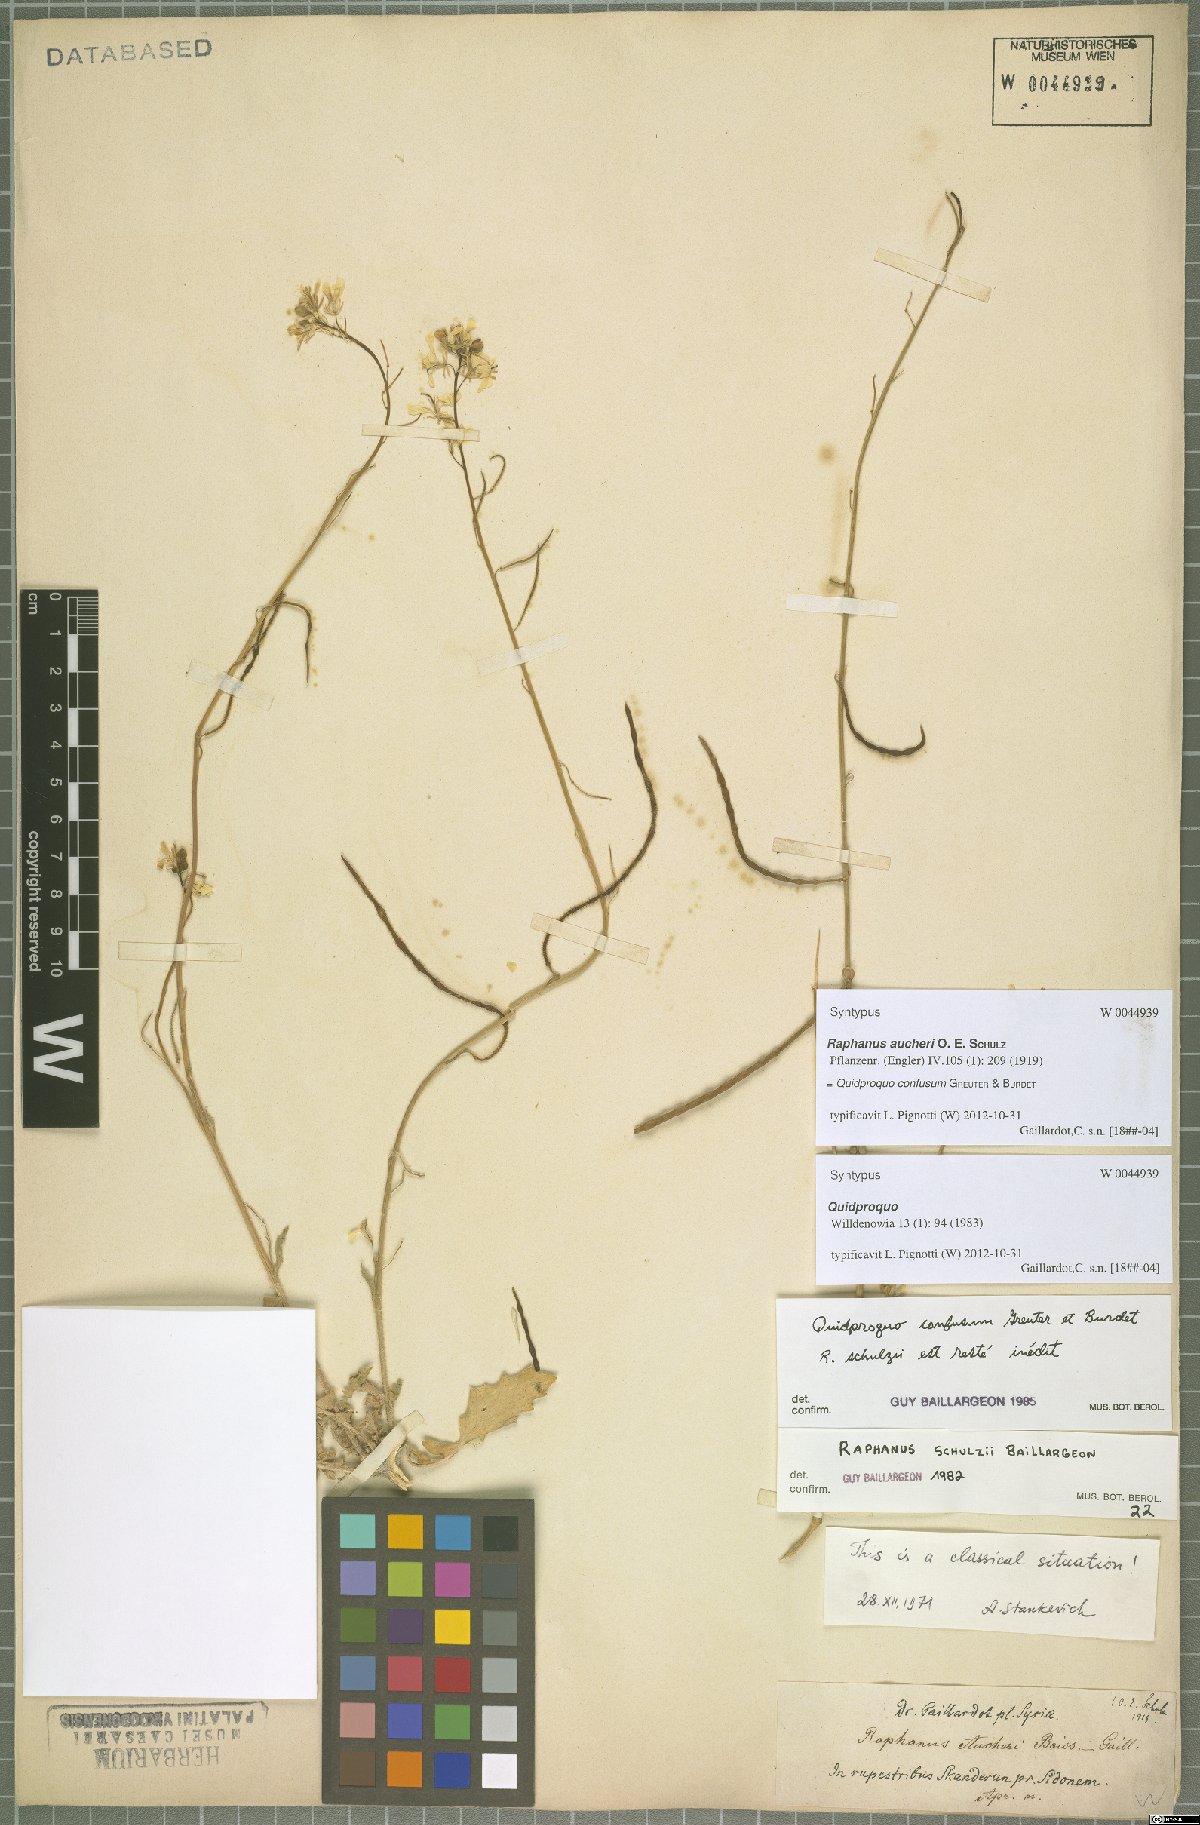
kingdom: Plantae
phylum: Tracheophyta
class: Magnoliopsida
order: Brassicales
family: Brassicaceae
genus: Raphanus
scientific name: Raphanus confusus
